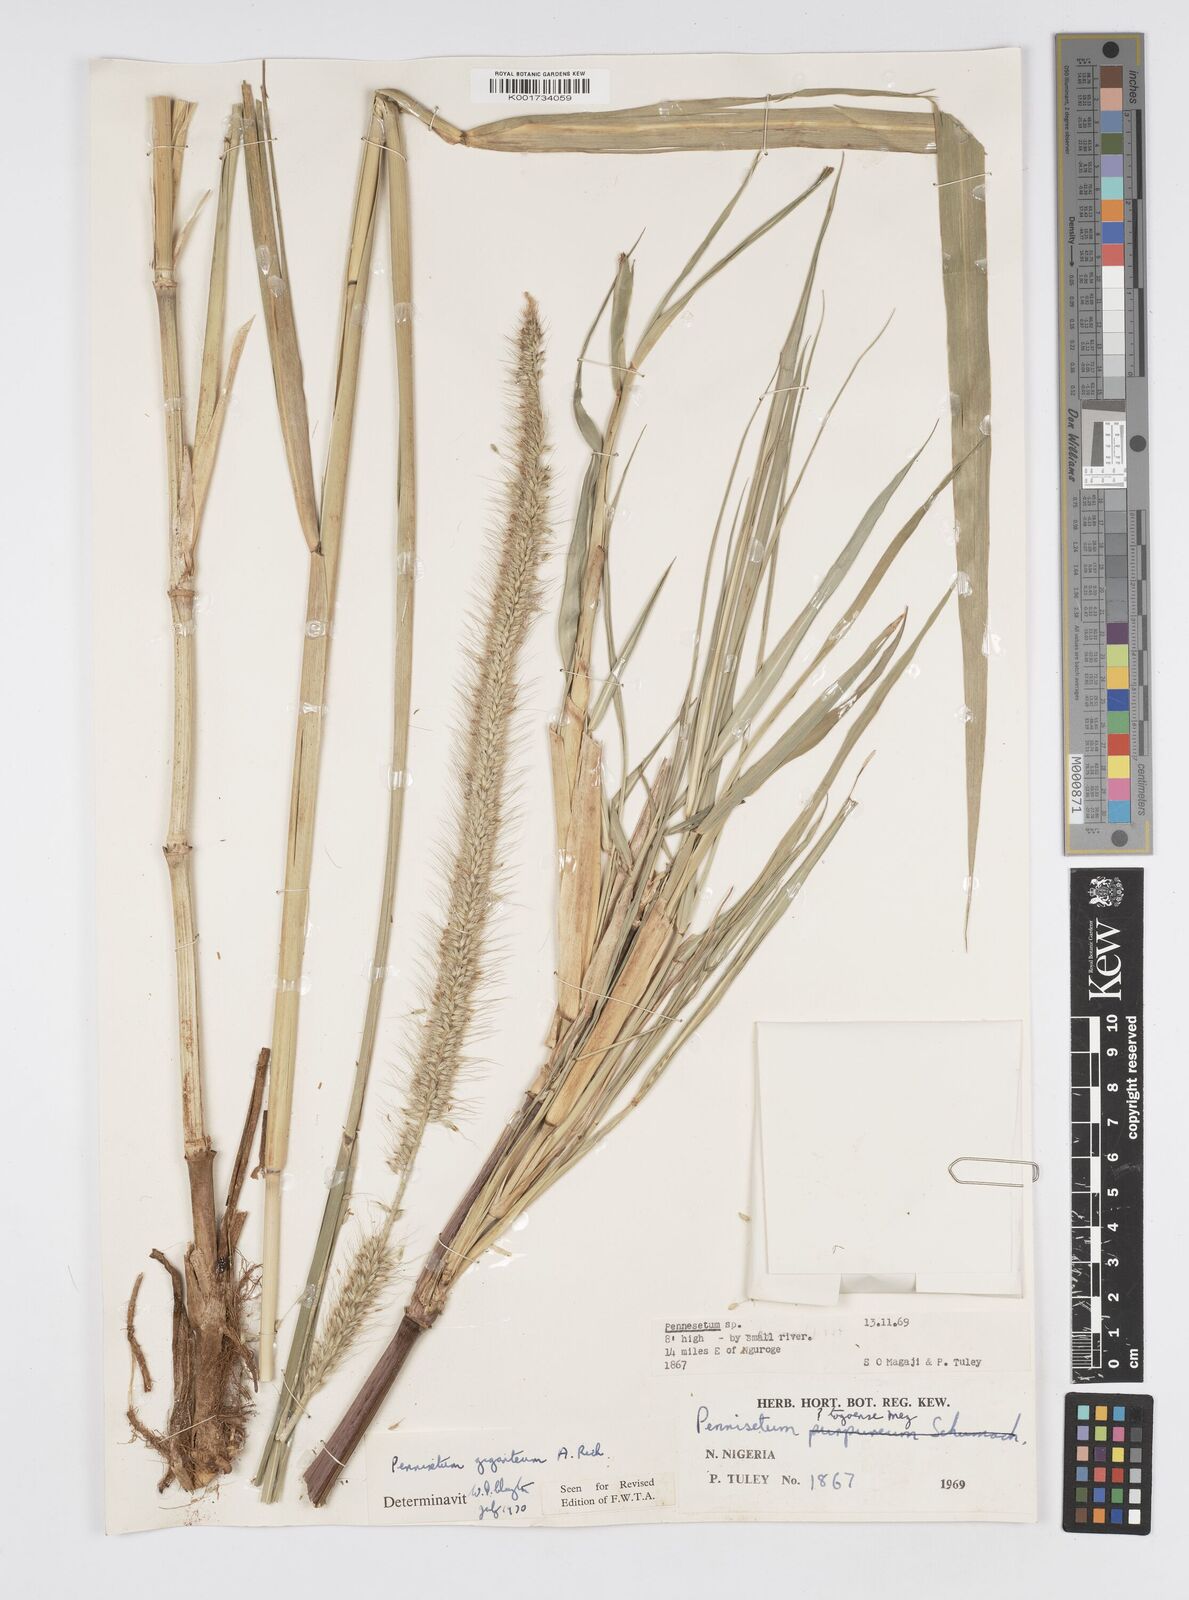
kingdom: Plantae
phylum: Tracheophyta
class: Liliopsida
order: Poales
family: Poaceae
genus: Cenchrus
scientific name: Cenchrus caudatus
